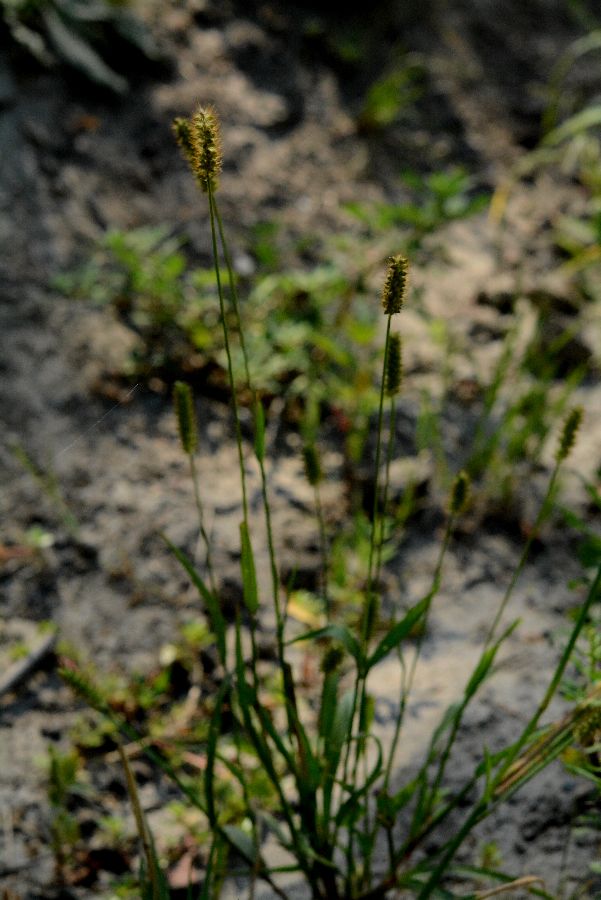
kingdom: Plantae
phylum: Tracheophyta
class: Liliopsida
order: Poales
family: Poaceae
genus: Setaria
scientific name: Setaria pumila
